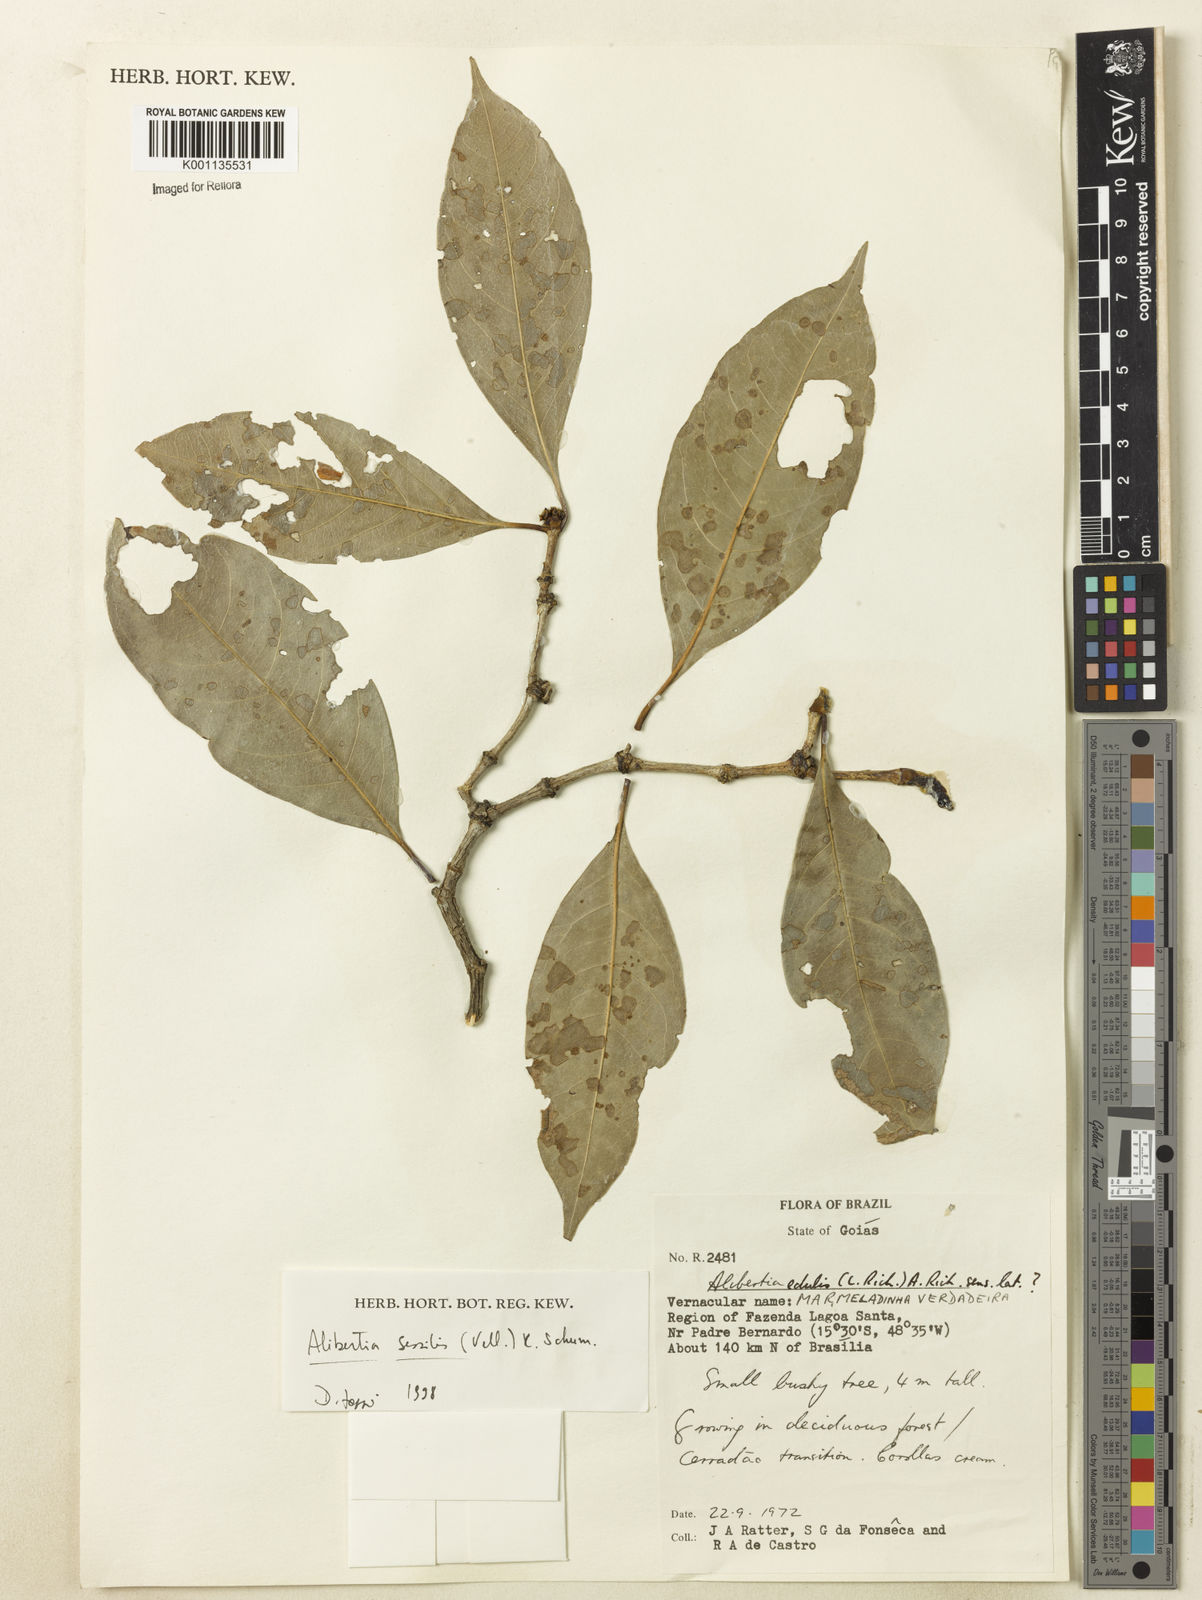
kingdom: Plantae
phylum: Tracheophyta
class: Magnoliopsida
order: Gentianales
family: Rubiaceae
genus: Cordiera
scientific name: Cordiera sessilis
